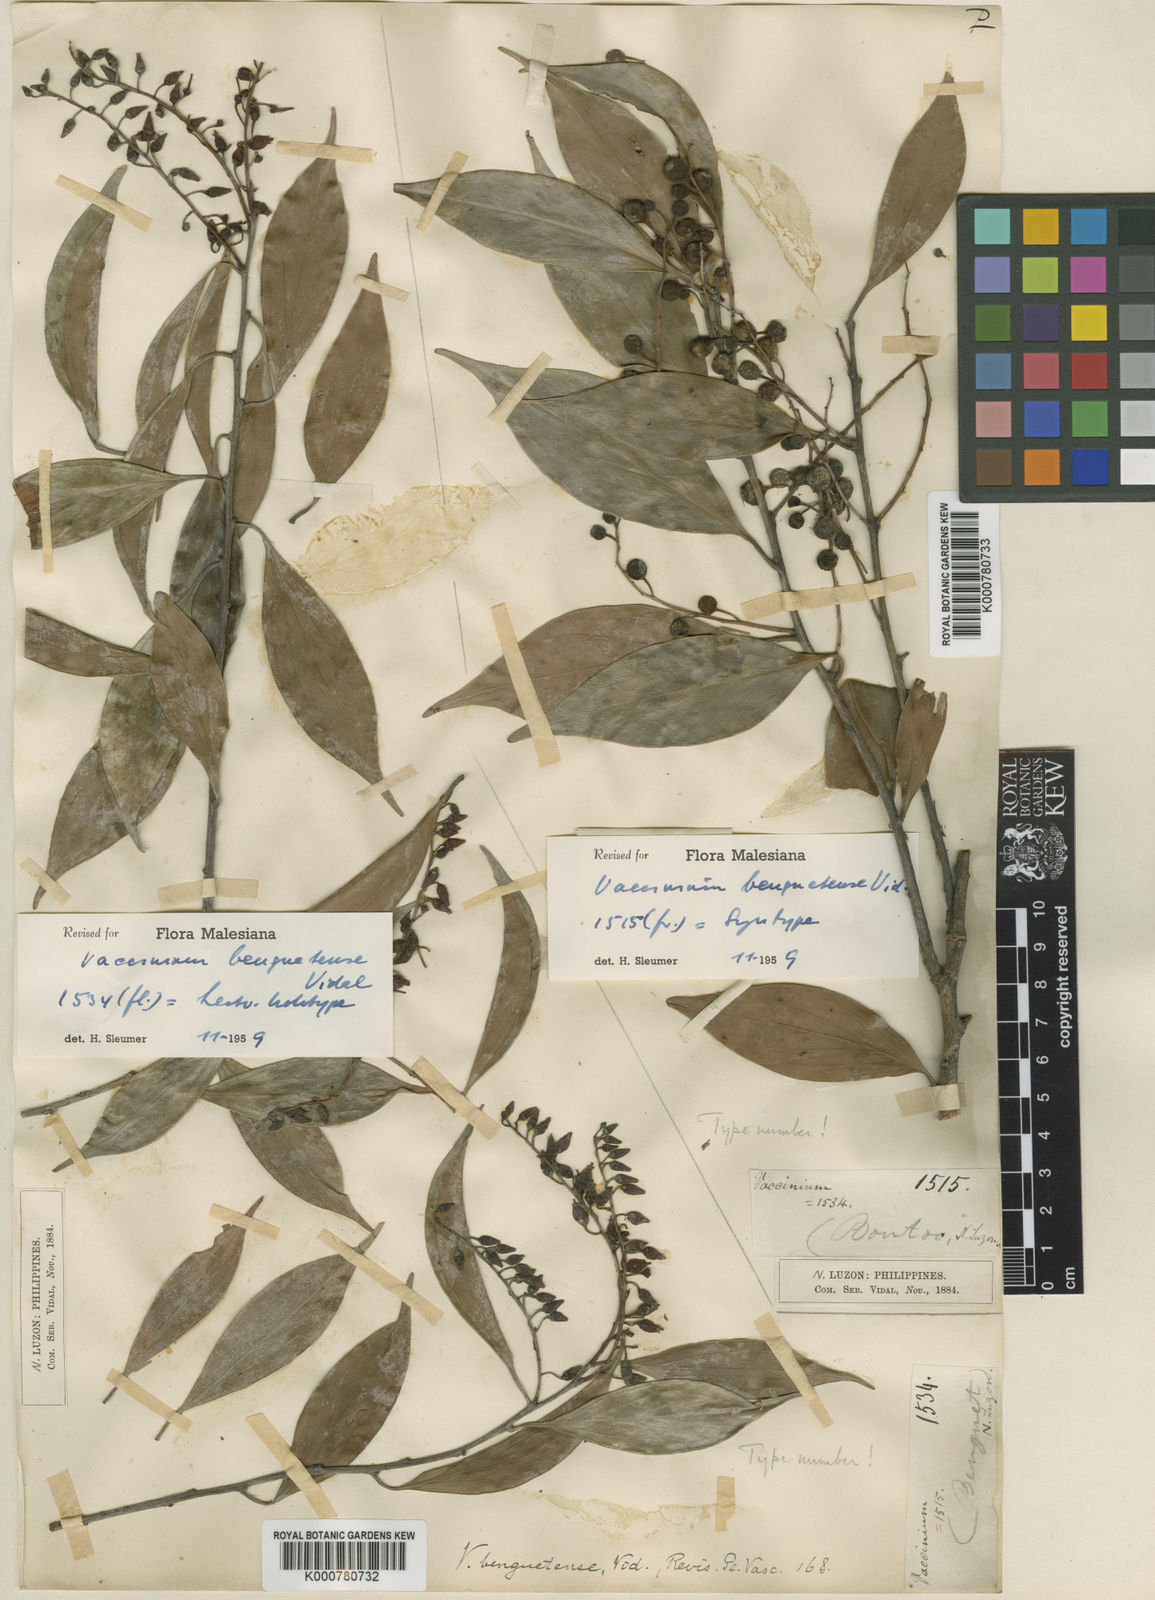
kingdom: Plantae
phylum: Tracheophyta
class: Magnoliopsida
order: Ericales
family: Ericaceae
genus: Vaccinium
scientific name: Vaccinium benguetense
